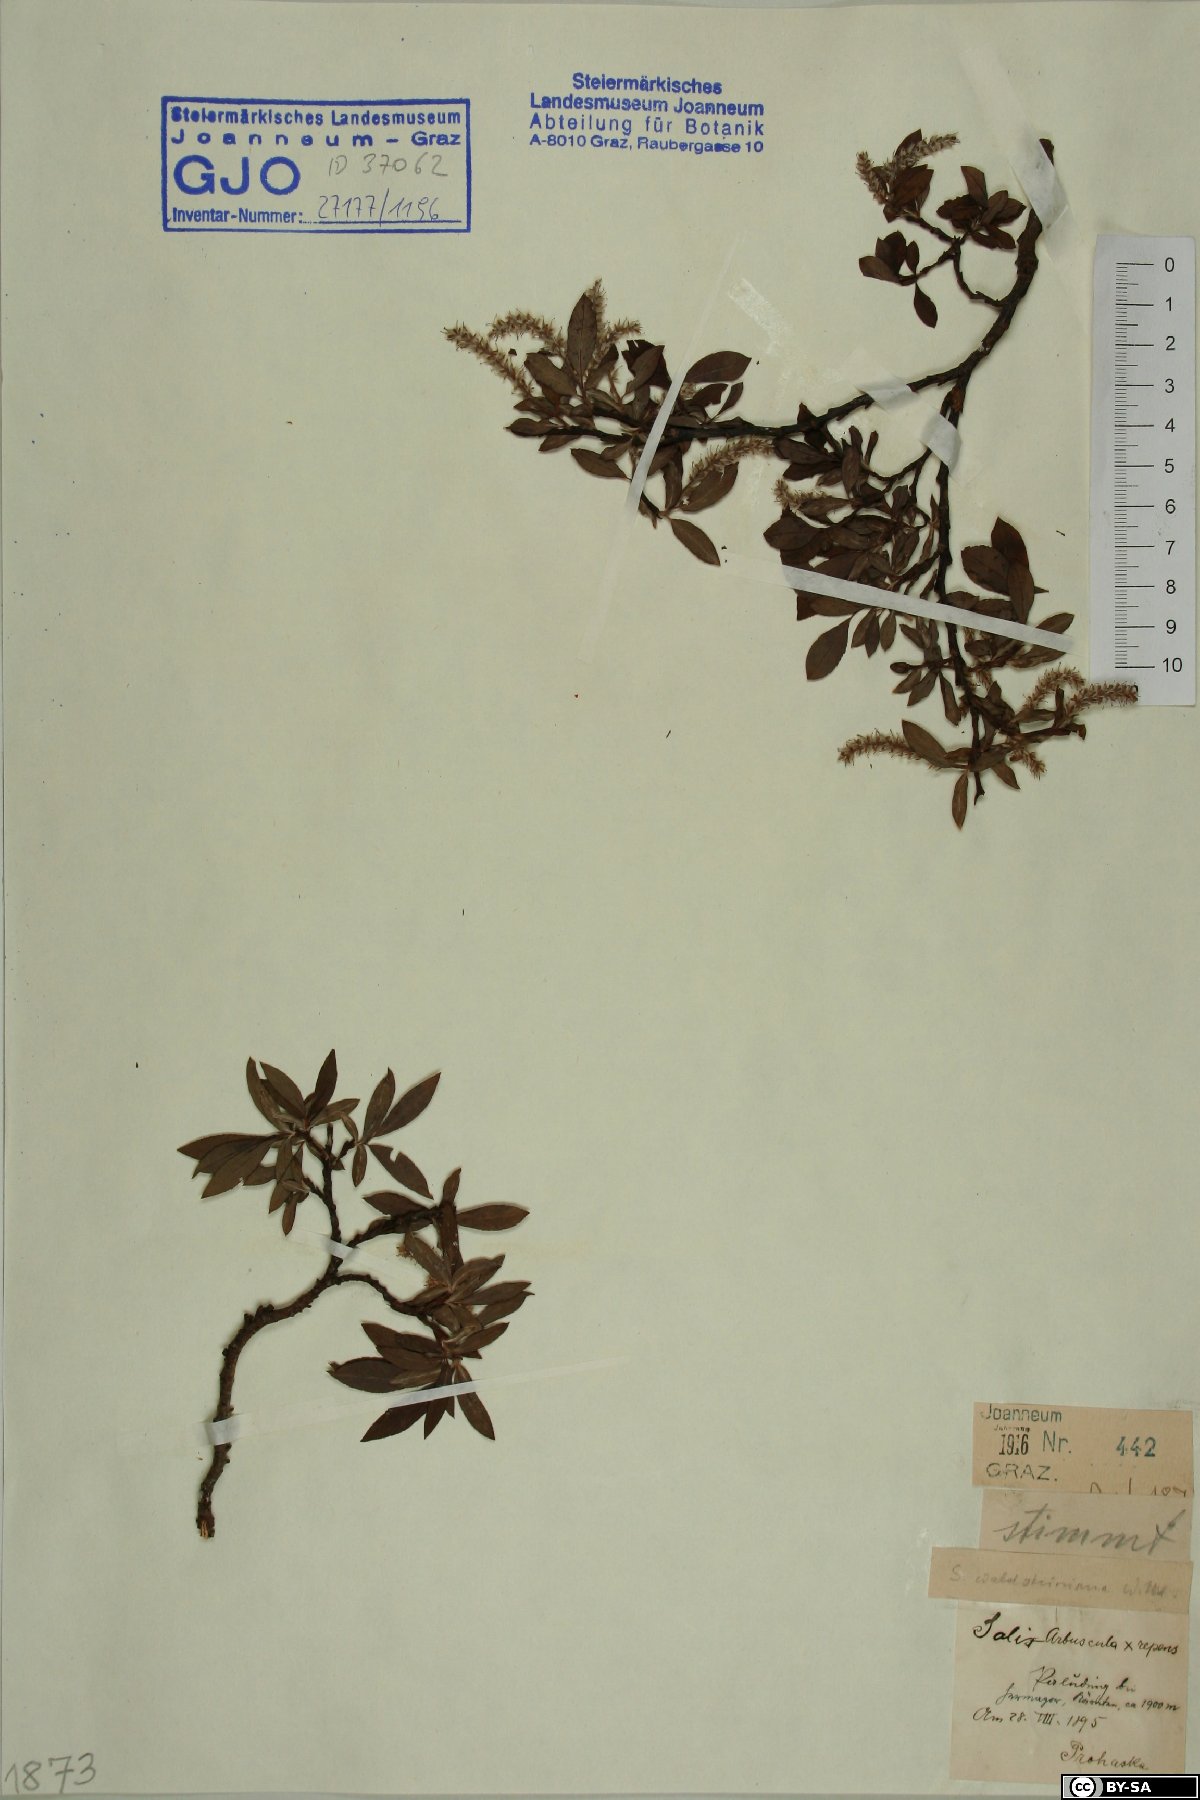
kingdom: Plantae
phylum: Tracheophyta
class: Magnoliopsida
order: Malpighiales
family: Salicaceae
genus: Salix
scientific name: Salix waldsteiniana
